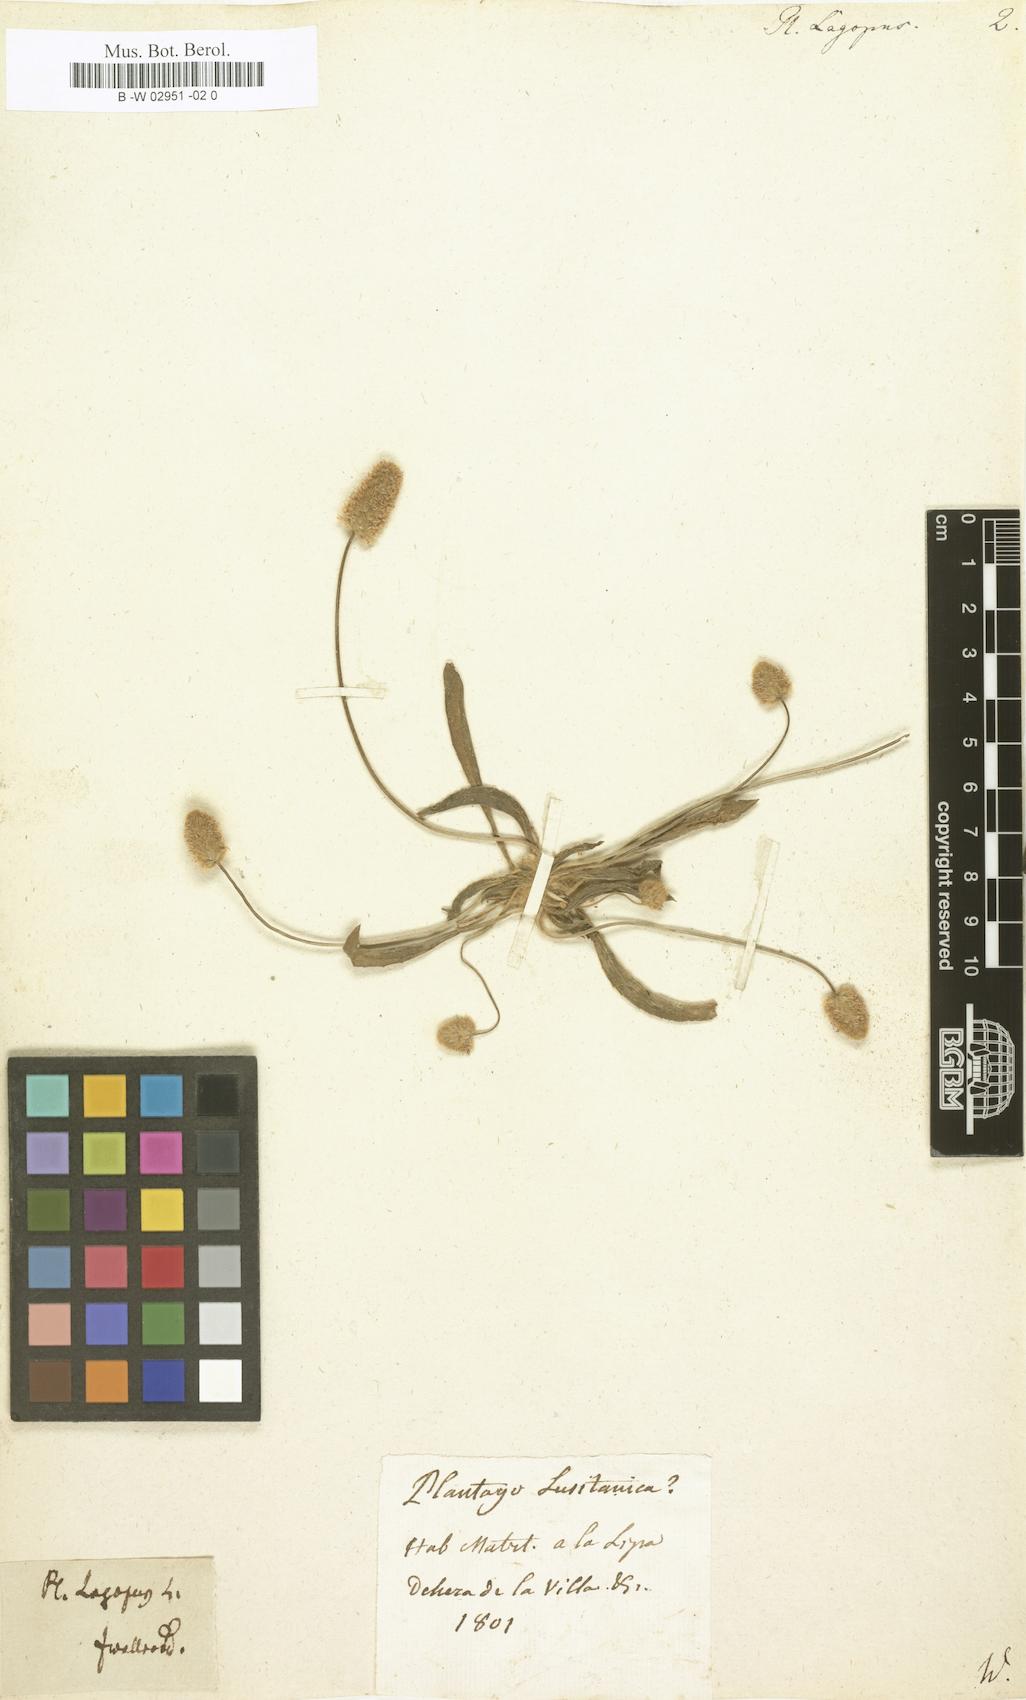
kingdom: Plantae
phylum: Tracheophyta
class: Magnoliopsida
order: Lamiales
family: Plantaginaceae
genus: Plantago
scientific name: Plantago lagopus
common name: Hare-foot plantain
